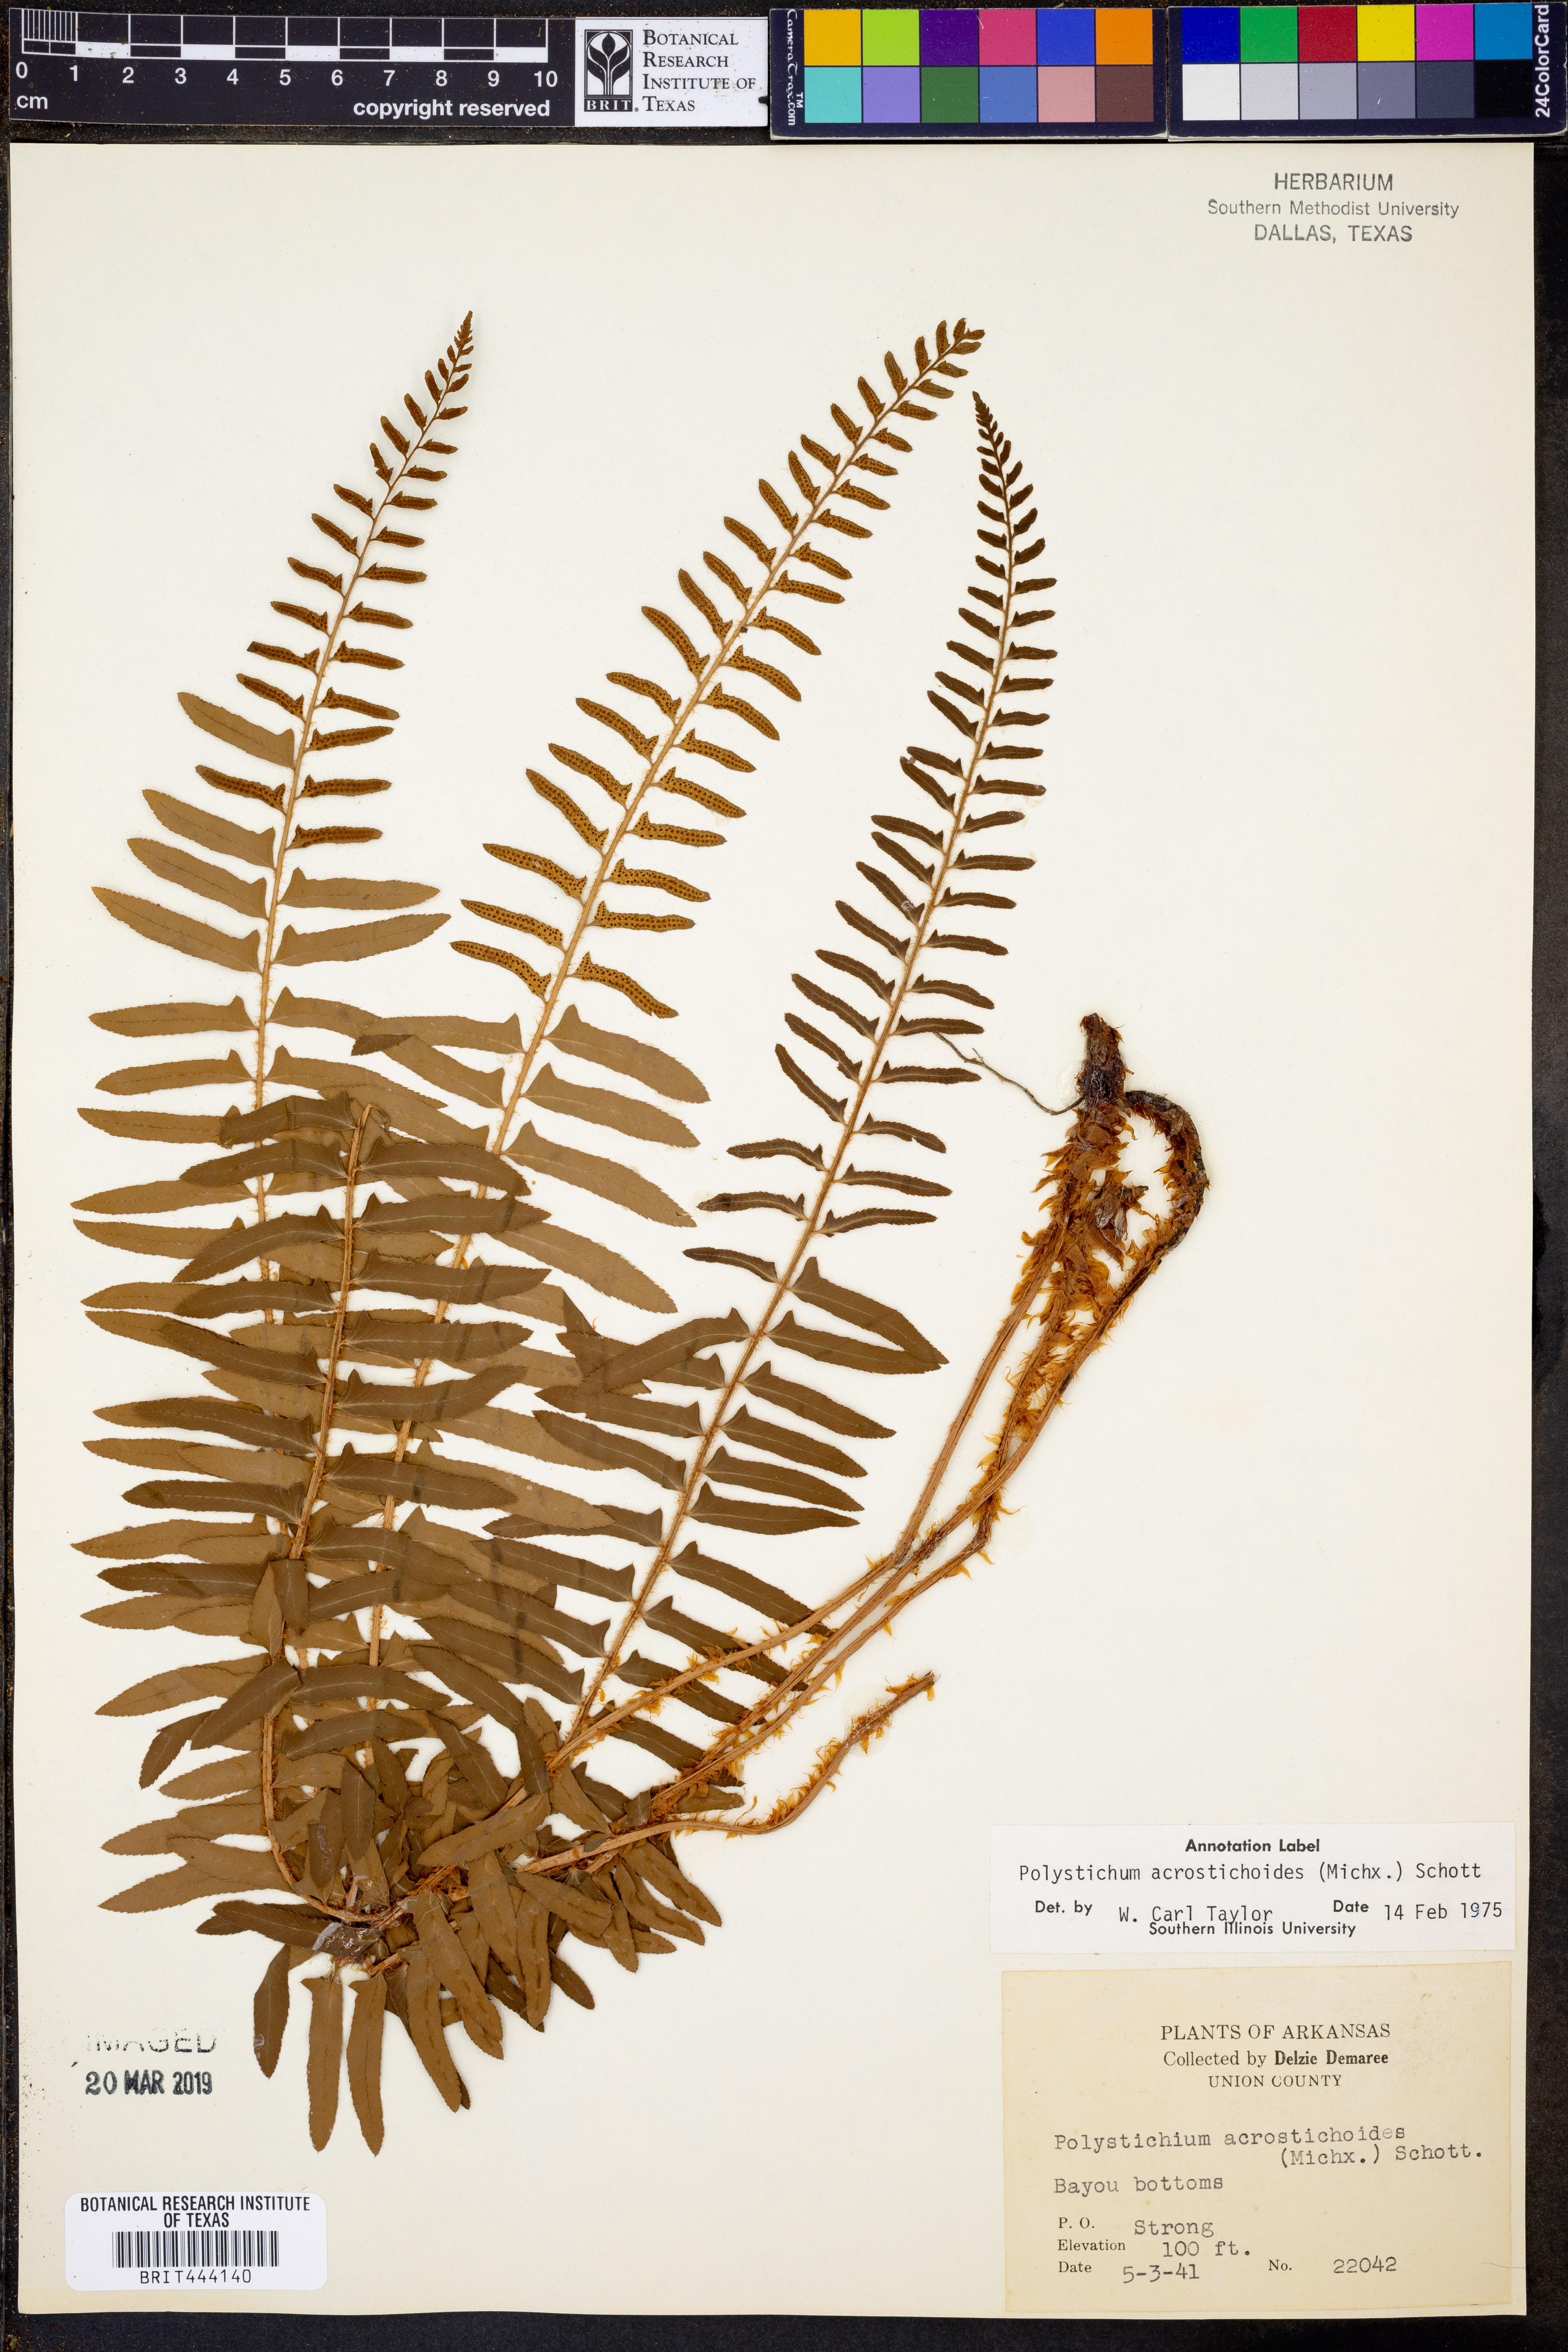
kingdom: Plantae
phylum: Tracheophyta
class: Polypodiopsida
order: Polypodiales
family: Dryopteridaceae
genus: Polystichum
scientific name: Polystichum acrostichoides
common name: Christmas fern
